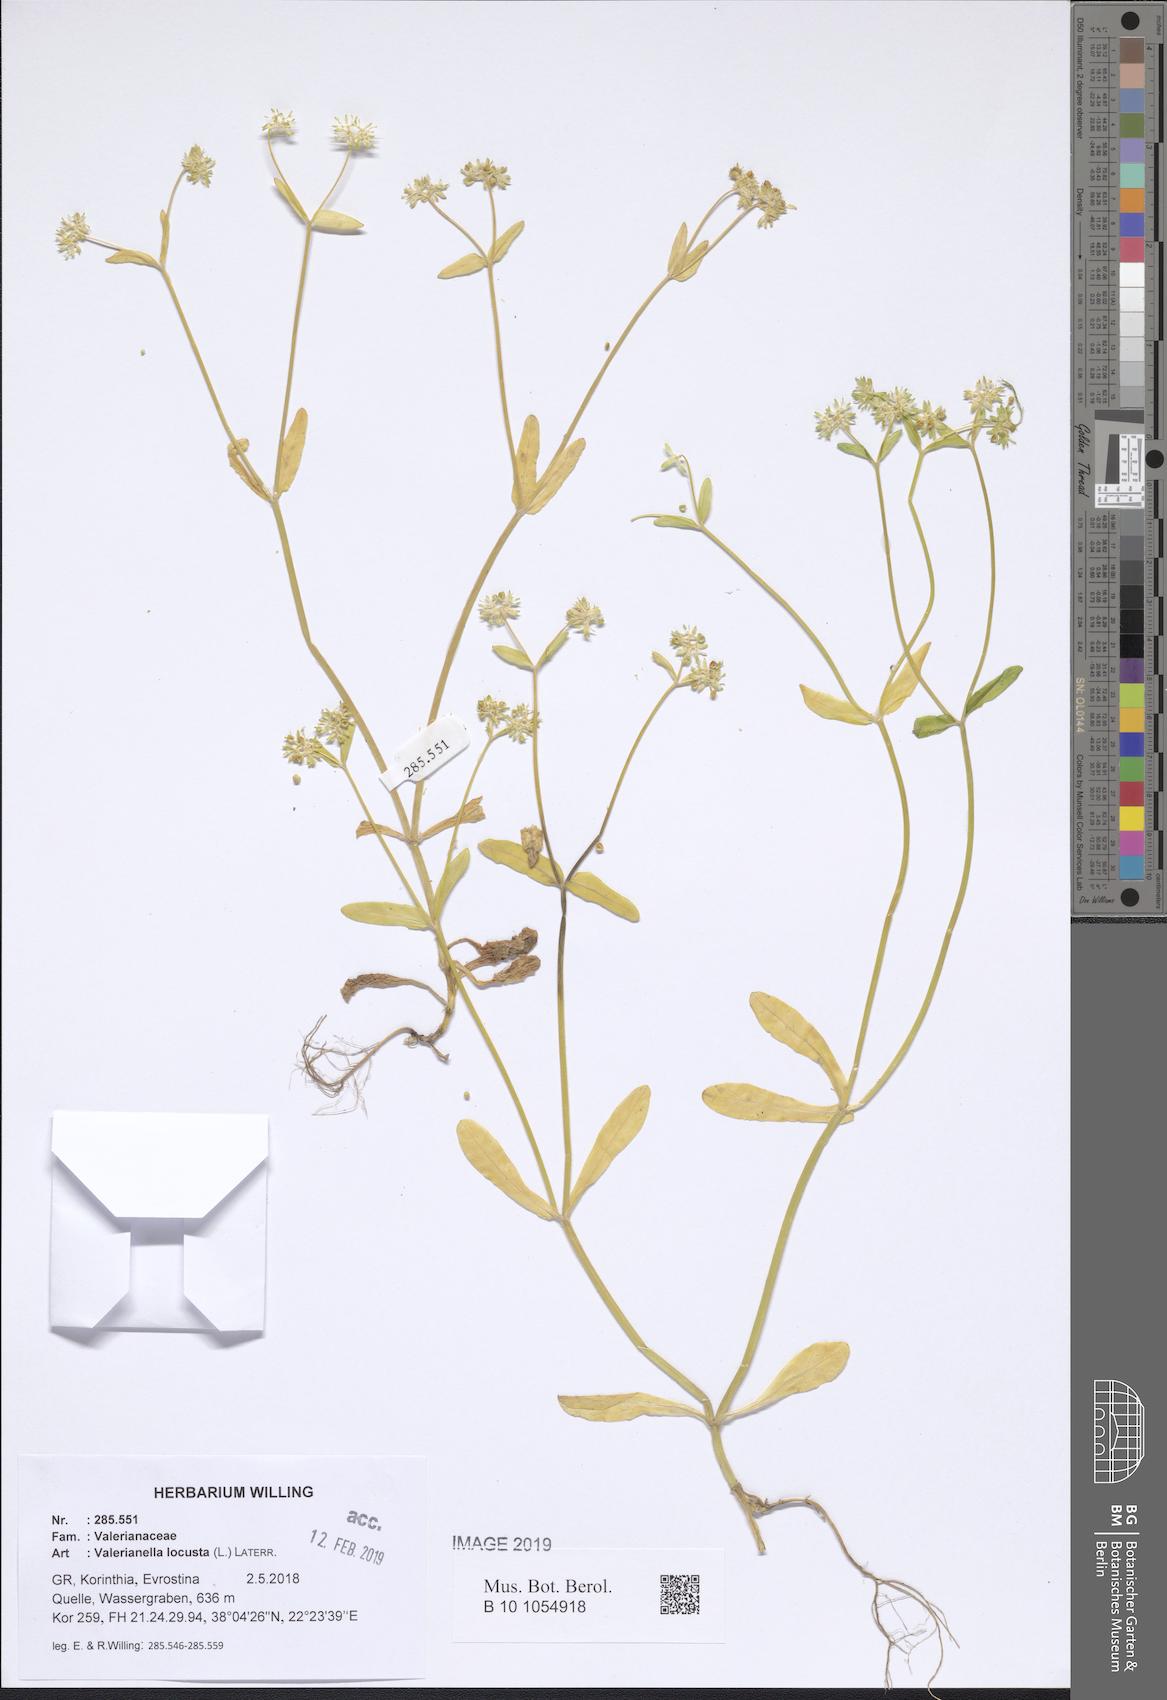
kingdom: Plantae
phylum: Tracheophyta
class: Magnoliopsida
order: Dipsacales
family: Caprifoliaceae
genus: Valerianella
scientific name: Valerianella locusta
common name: Common cornsalad
